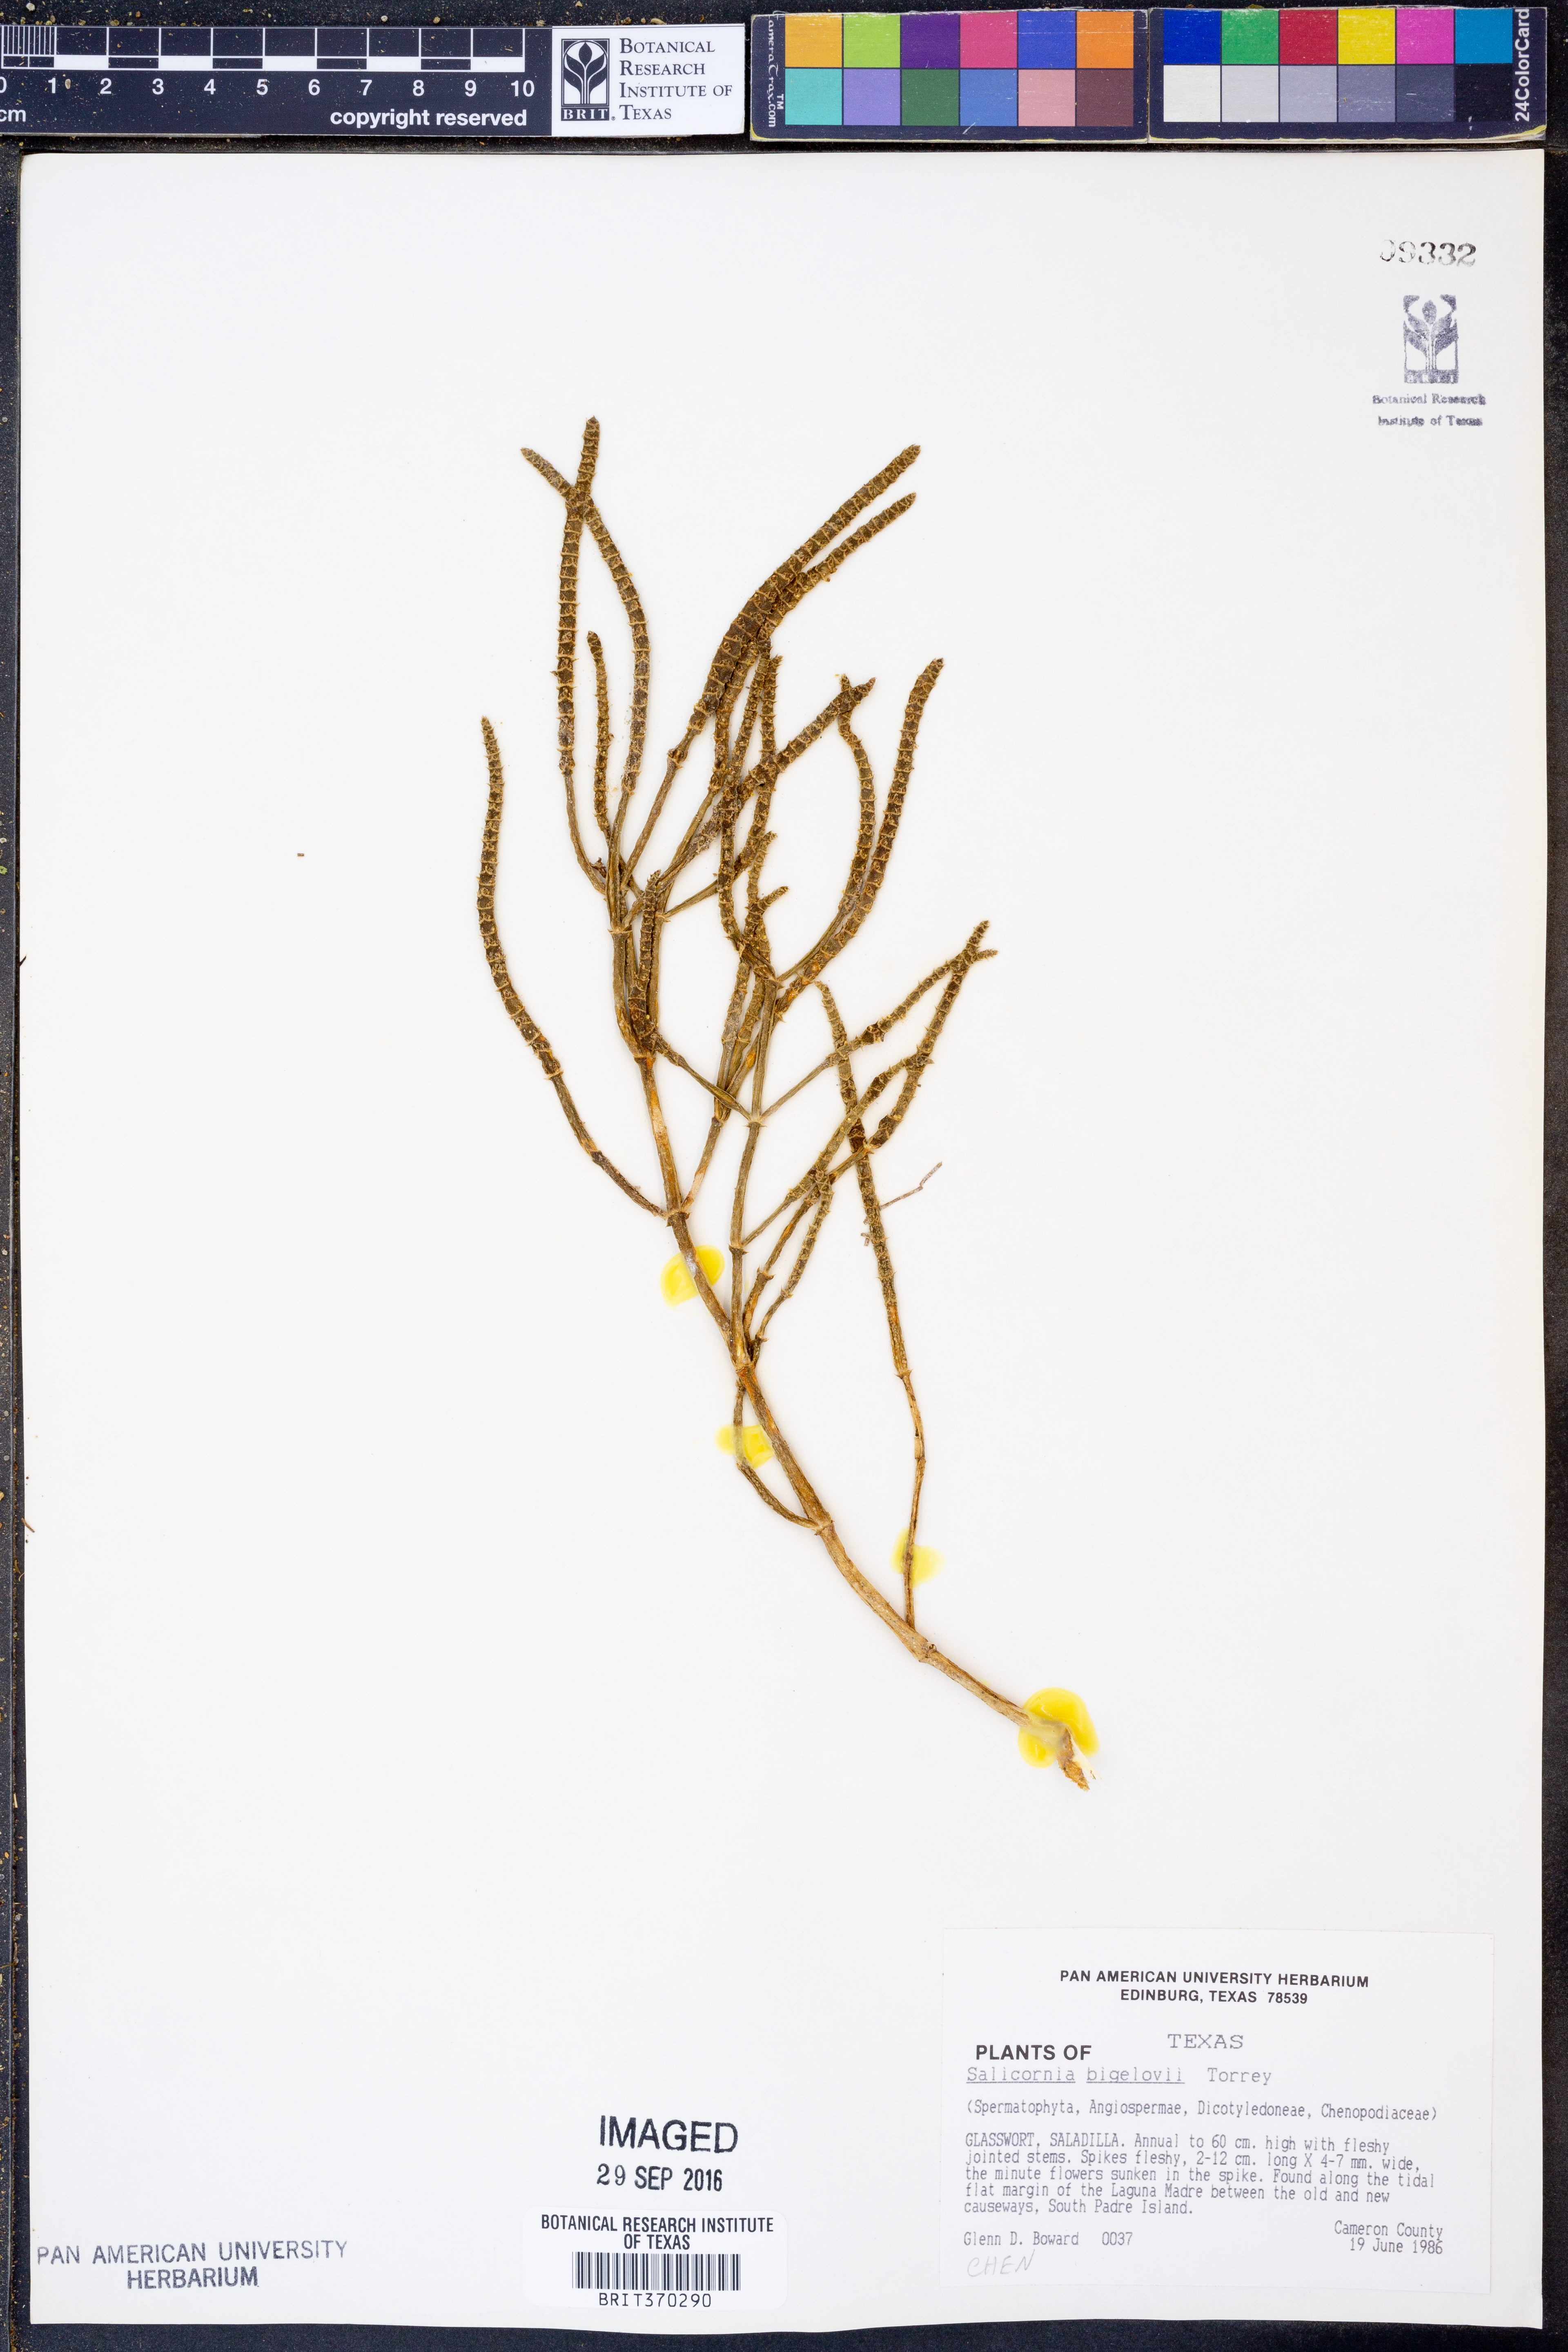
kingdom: Plantae
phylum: Tracheophyta
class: Magnoliopsida
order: Caryophyllales
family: Amaranthaceae
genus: Salicornia
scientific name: Salicornia bigelovii
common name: Dwarf glasswort
